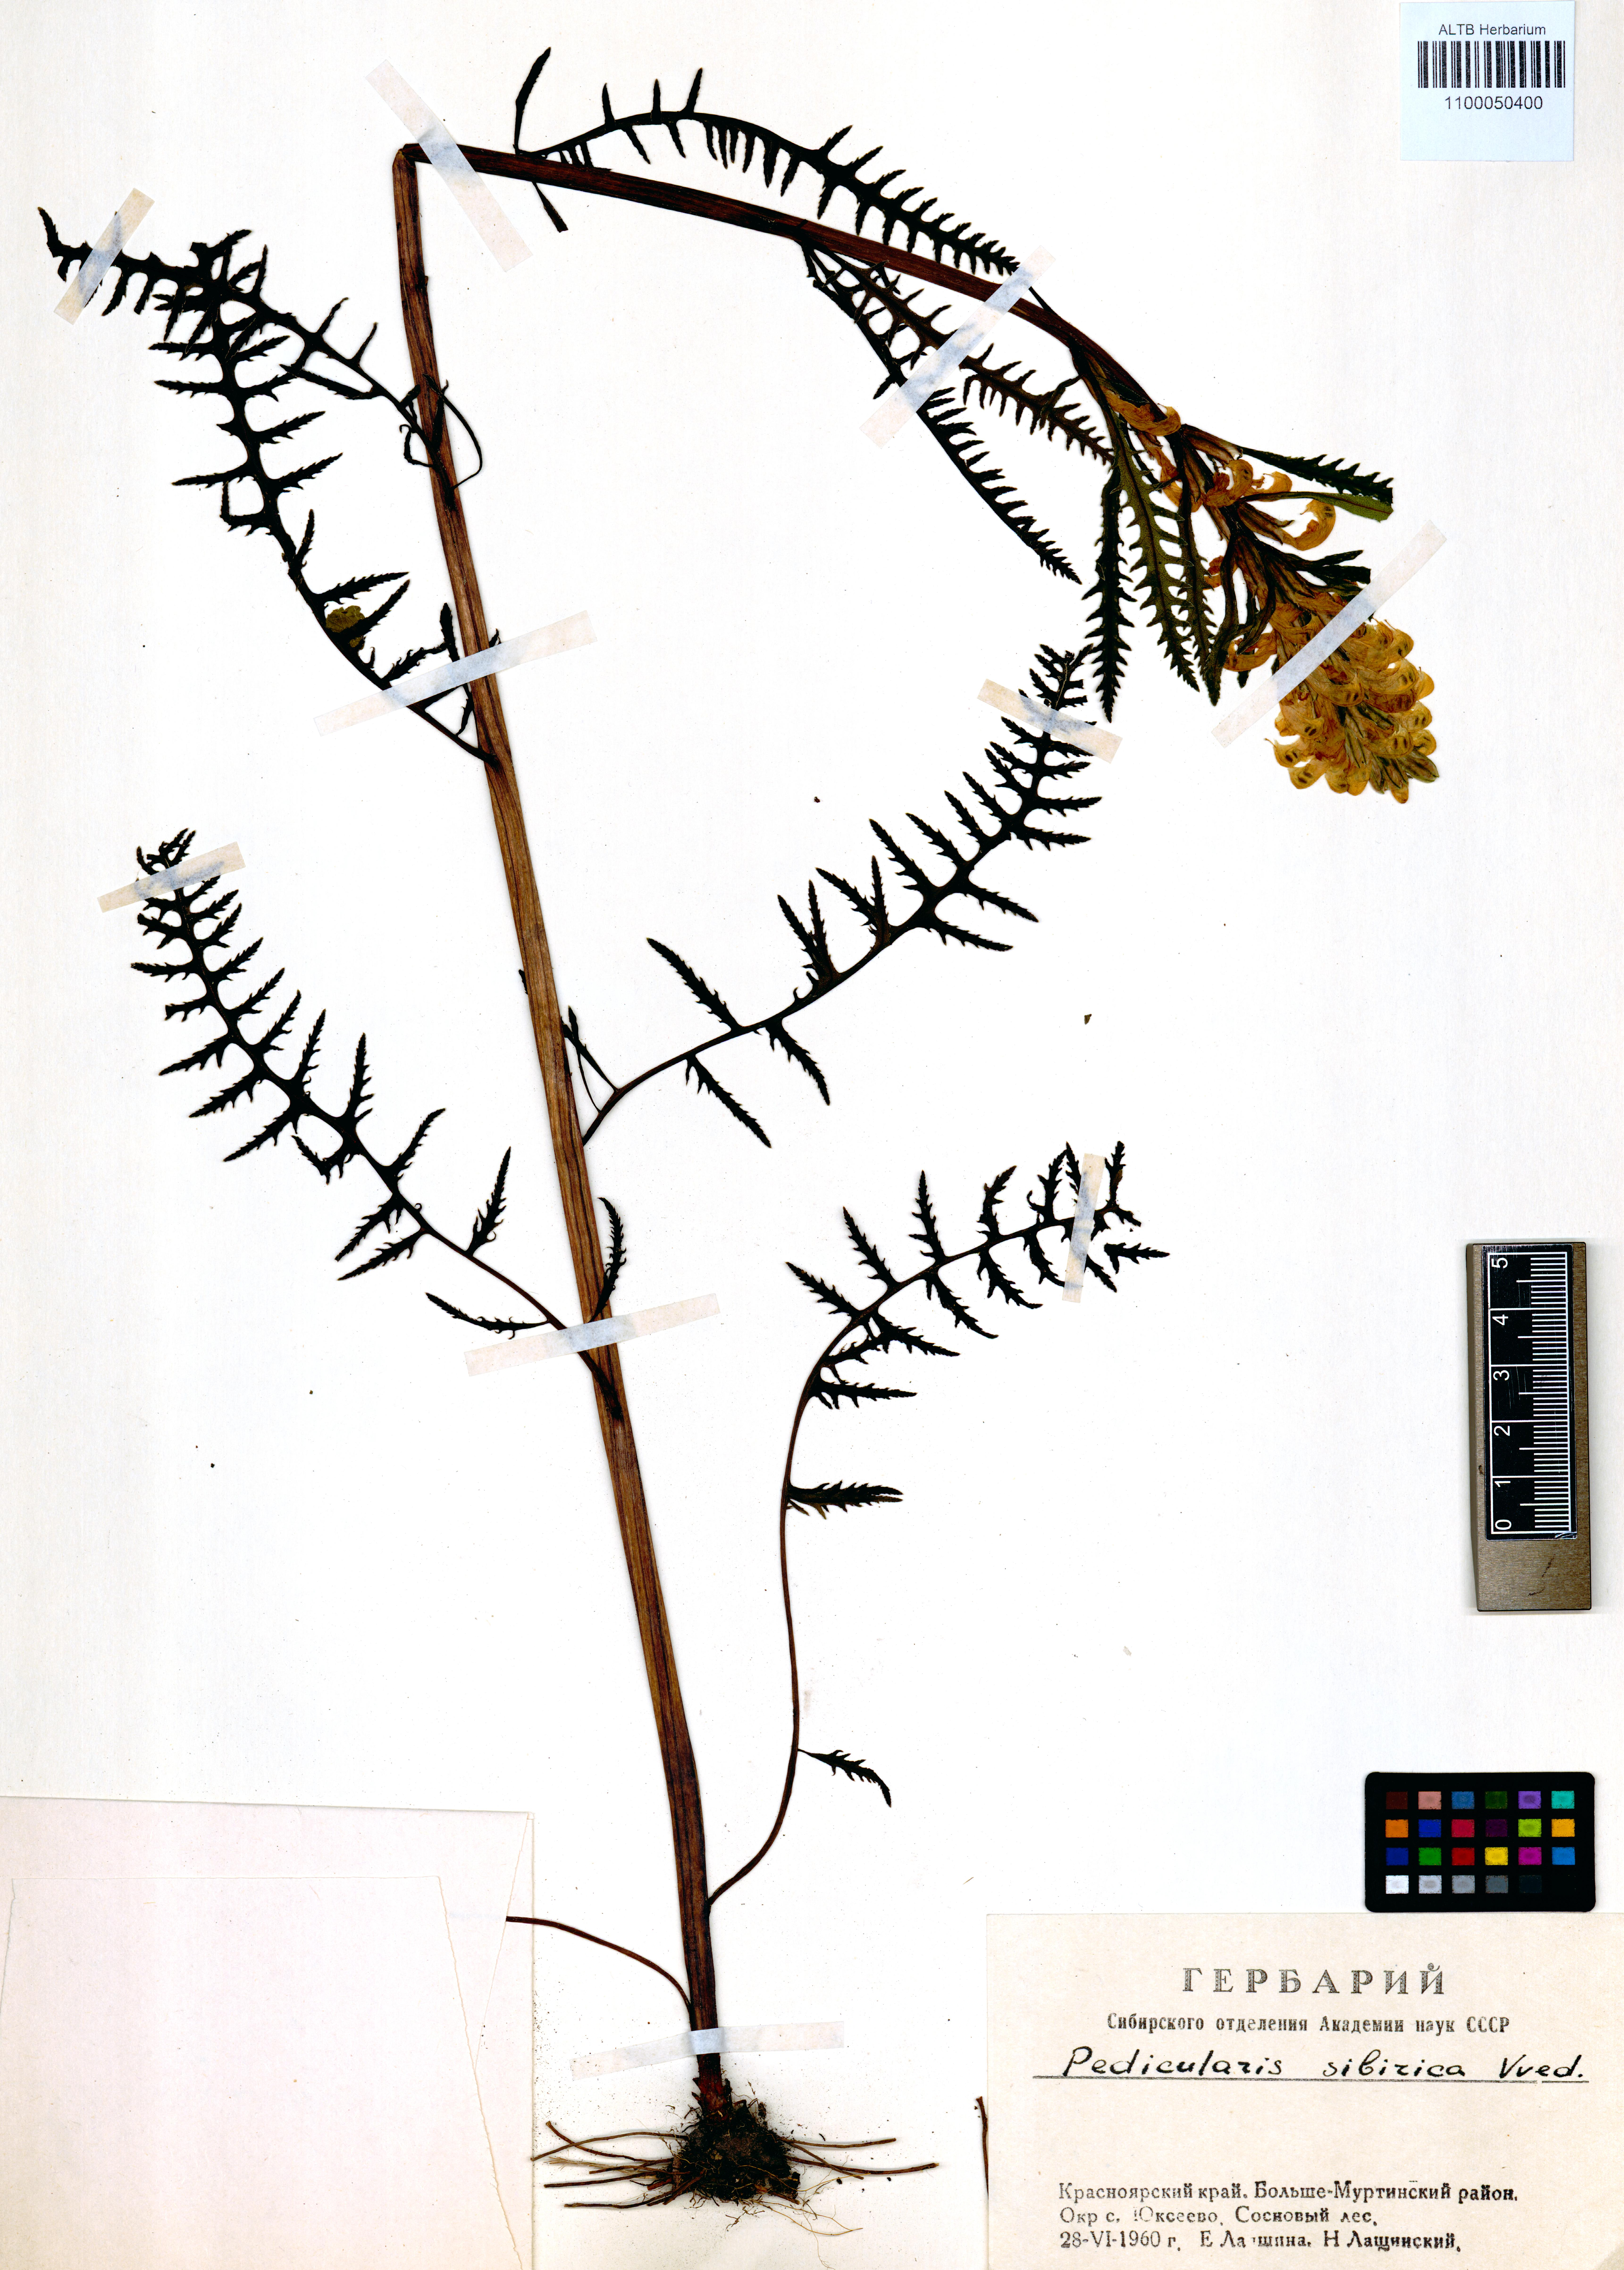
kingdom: Plantae
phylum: Tracheophyta
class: Magnoliopsida
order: Lamiales
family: Orobanchaceae
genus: Pedicularis
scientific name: Pedicularis sibirica
